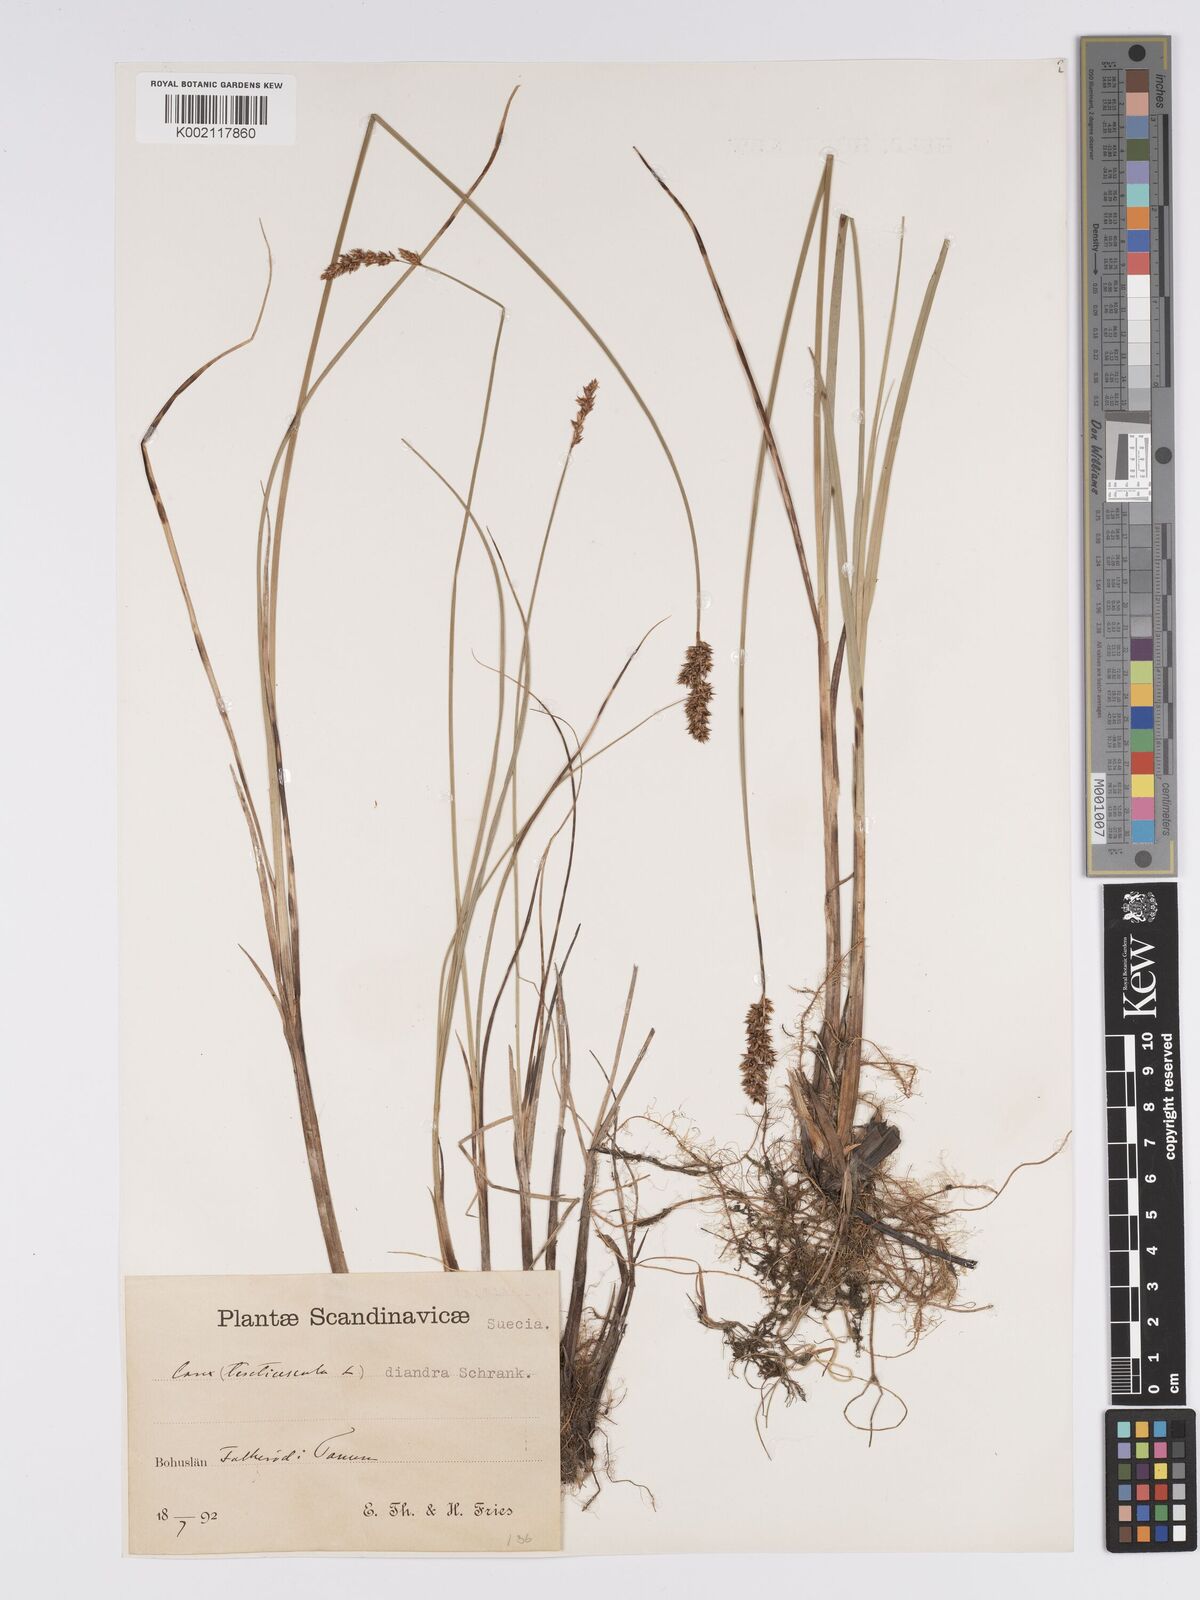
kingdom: Plantae
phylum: Tracheophyta
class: Liliopsida
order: Poales
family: Cyperaceae
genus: Carex
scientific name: Carex diandra
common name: Lesser tussock-sedge
